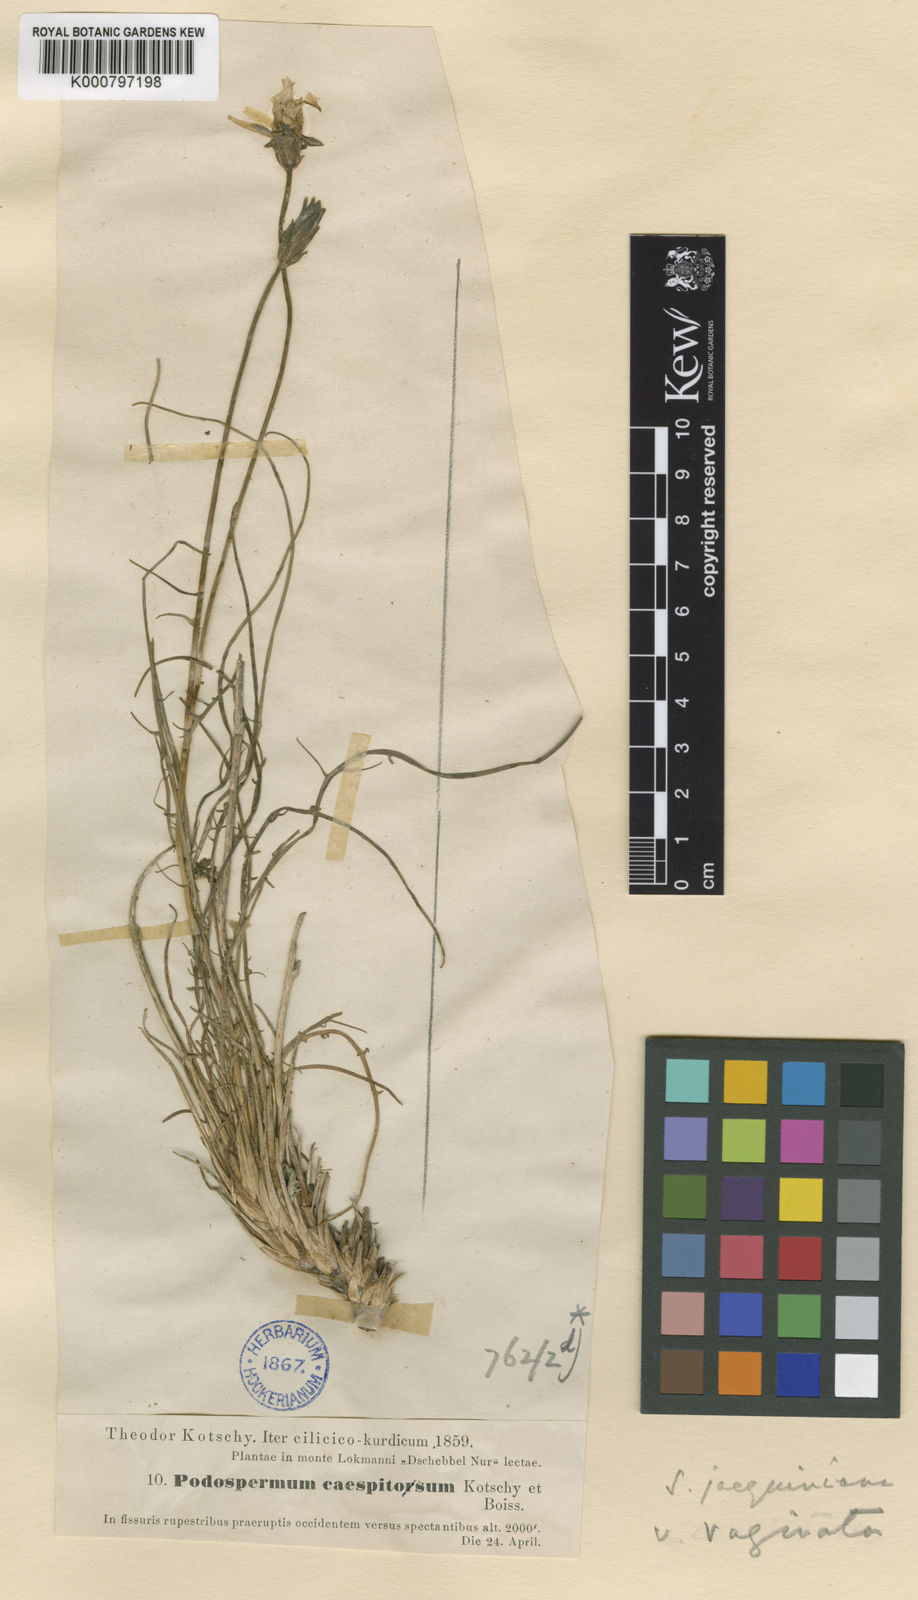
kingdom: Plantae
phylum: Tracheophyta
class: Magnoliopsida
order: Asterales
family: Asteraceae
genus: Scorzonera
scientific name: Scorzonera cana
